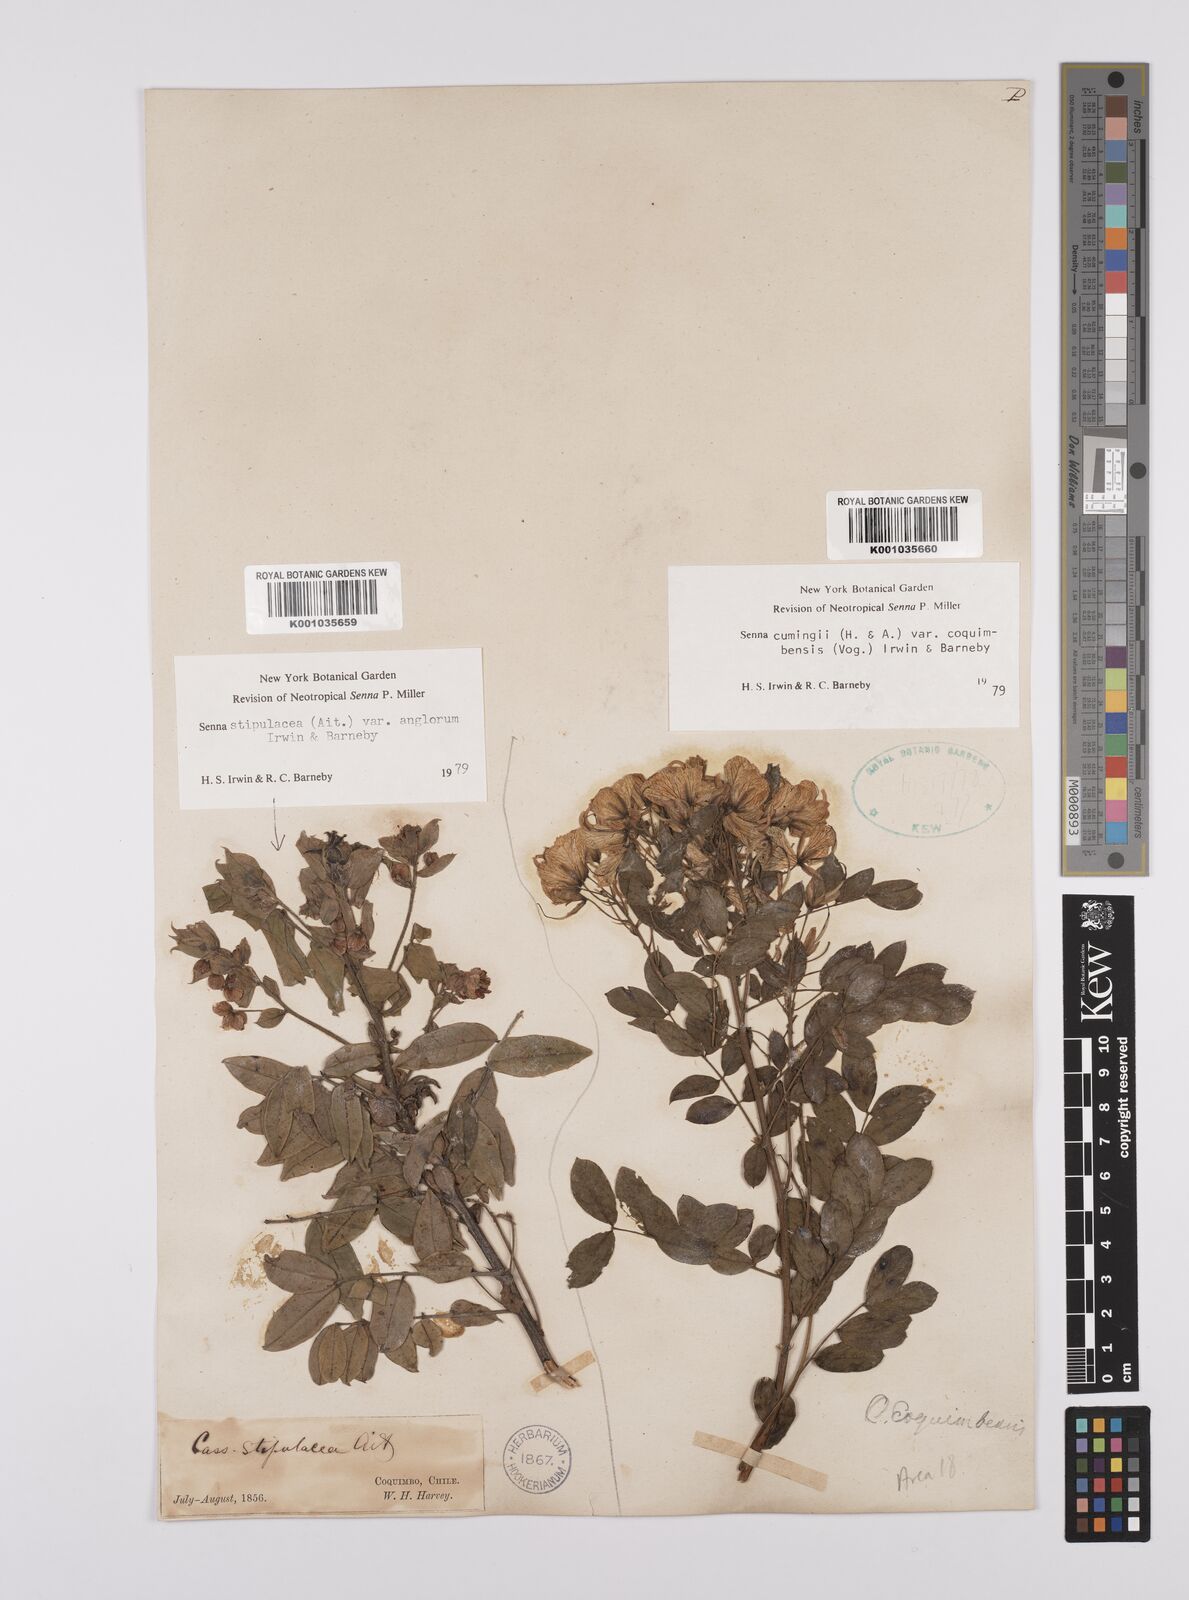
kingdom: Plantae
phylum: Tracheophyta
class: Magnoliopsida
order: Fabales
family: Fabaceae
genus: Senna
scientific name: Senna stipulacea
